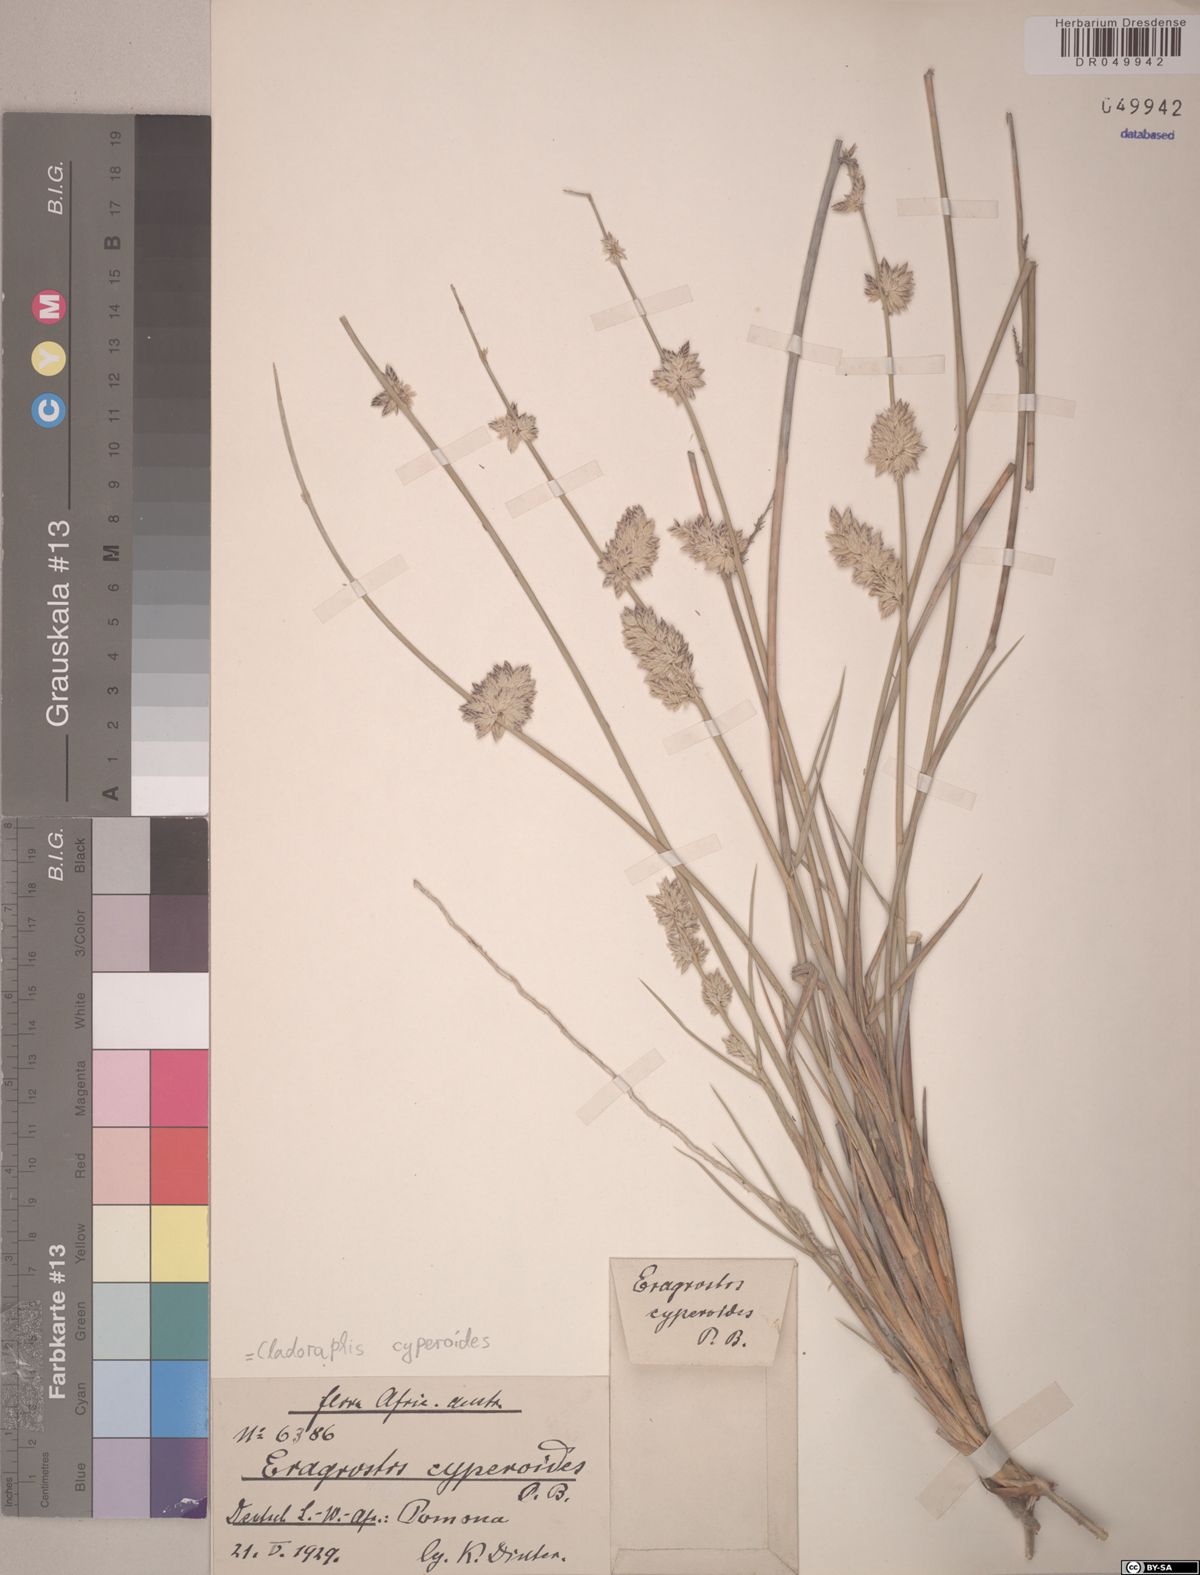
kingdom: Plantae
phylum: Tracheophyta
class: Liliopsida
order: Poales
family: Poaceae
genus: Cladoraphis
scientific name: Cladoraphis cyperoides
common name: Bristly lovegrass
